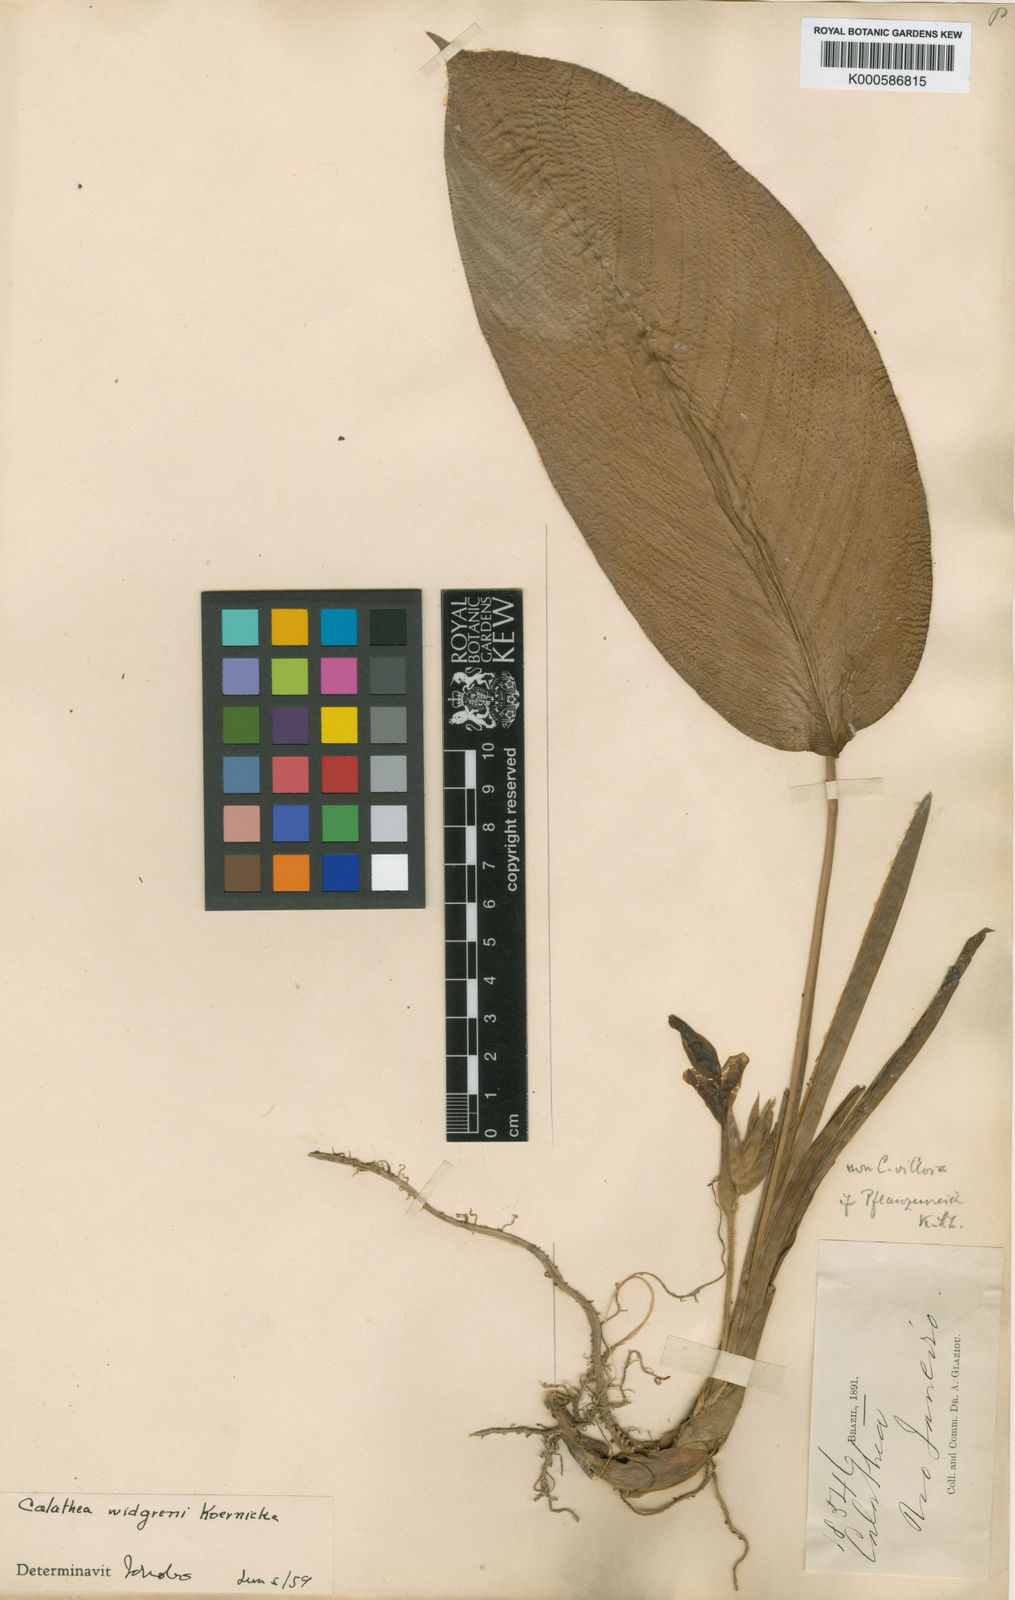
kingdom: Plantae
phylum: Tracheophyta
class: Liliopsida
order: Zingiberales
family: Marantaceae
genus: Calathea
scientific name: Calathea
